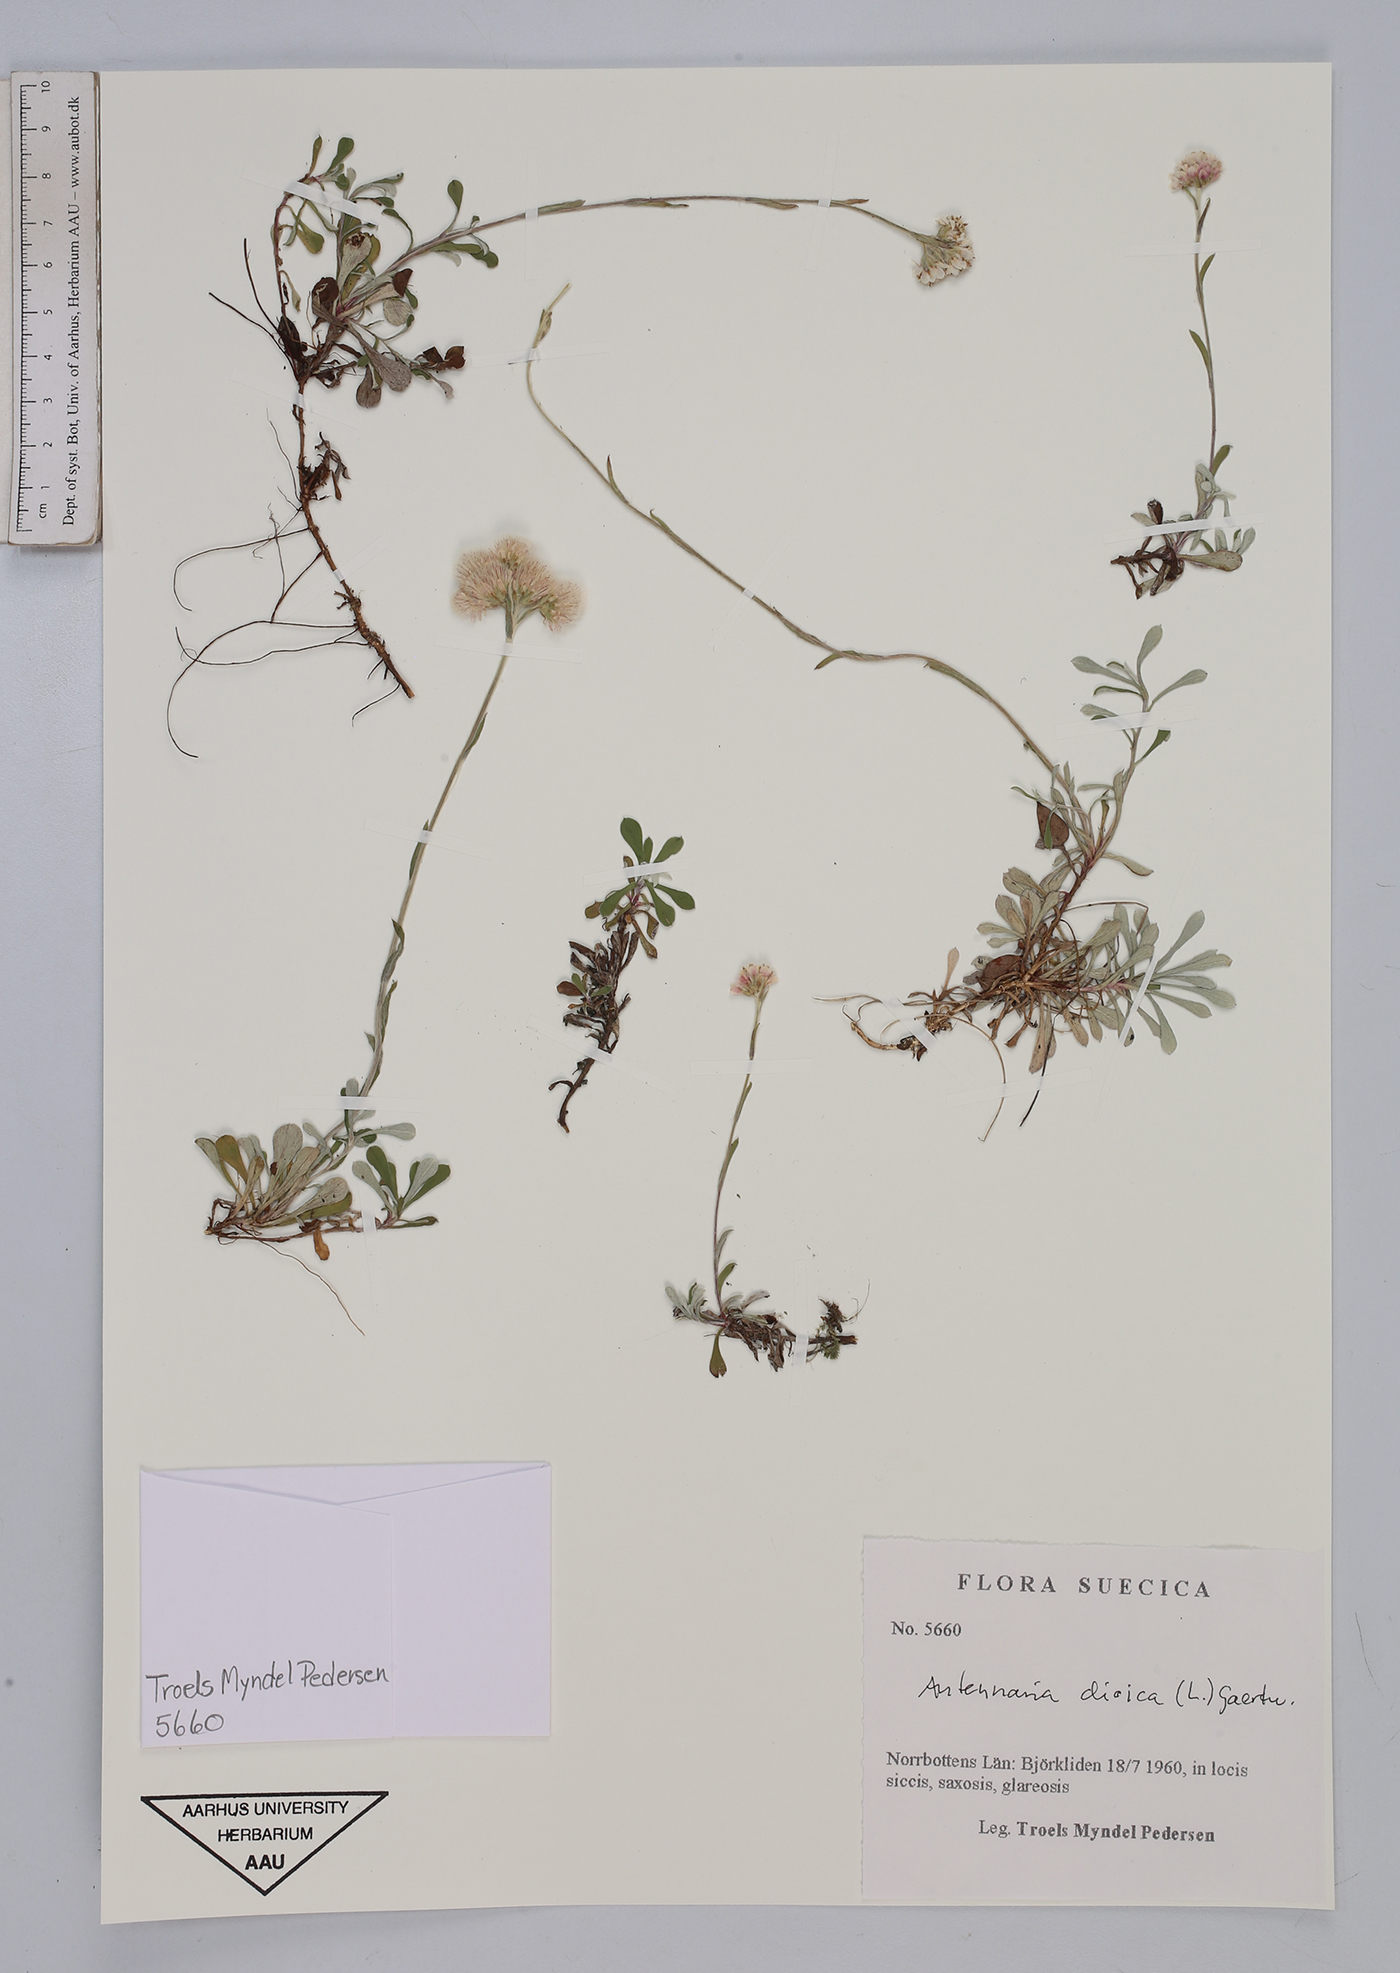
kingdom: Plantae
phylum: Tracheophyta
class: Magnoliopsida
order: Asterales
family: Asteraceae
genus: Antennaria
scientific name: Antennaria dioica
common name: Mountain everlasting
